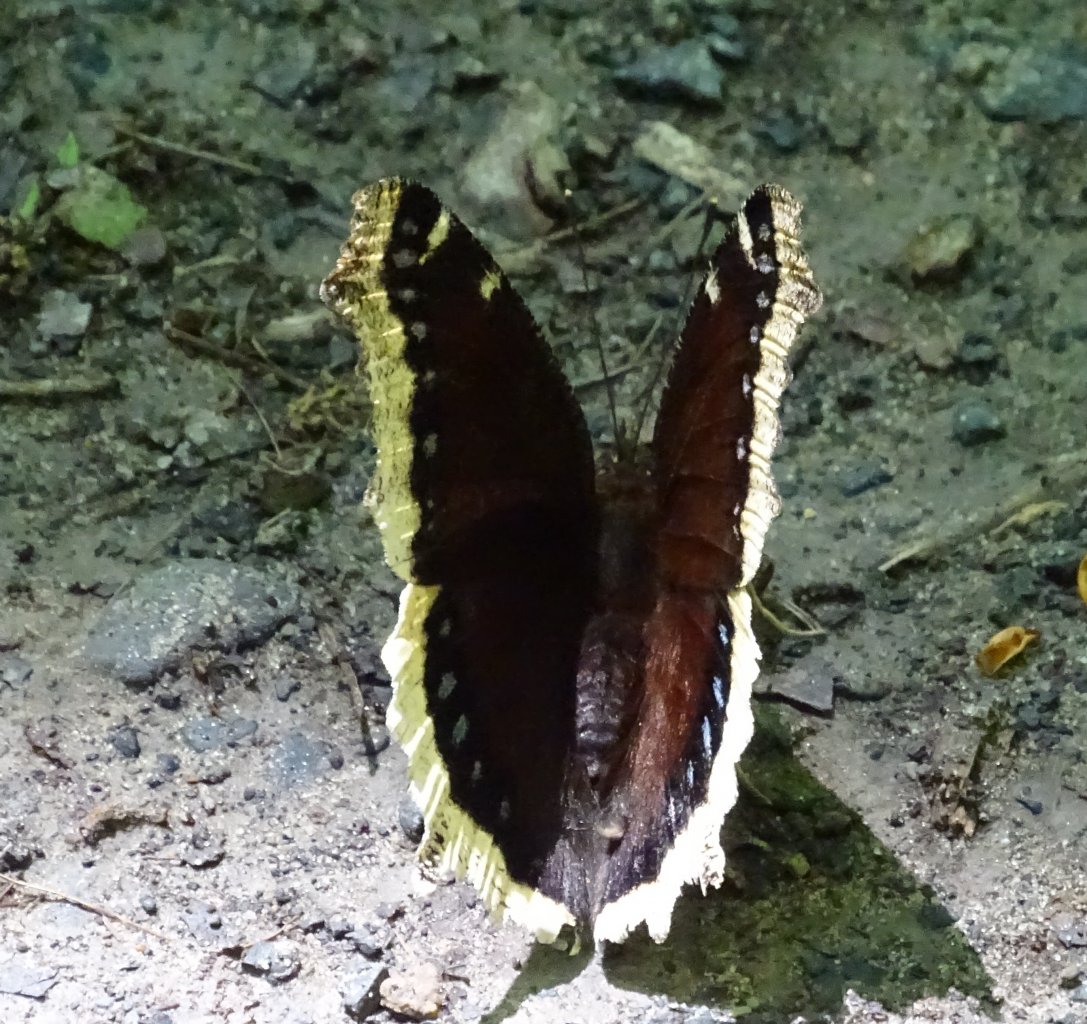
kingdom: Animalia
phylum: Arthropoda
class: Insecta
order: Lepidoptera
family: Nymphalidae
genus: Nymphalis
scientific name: Nymphalis antiopa
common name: Mourning Cloak
